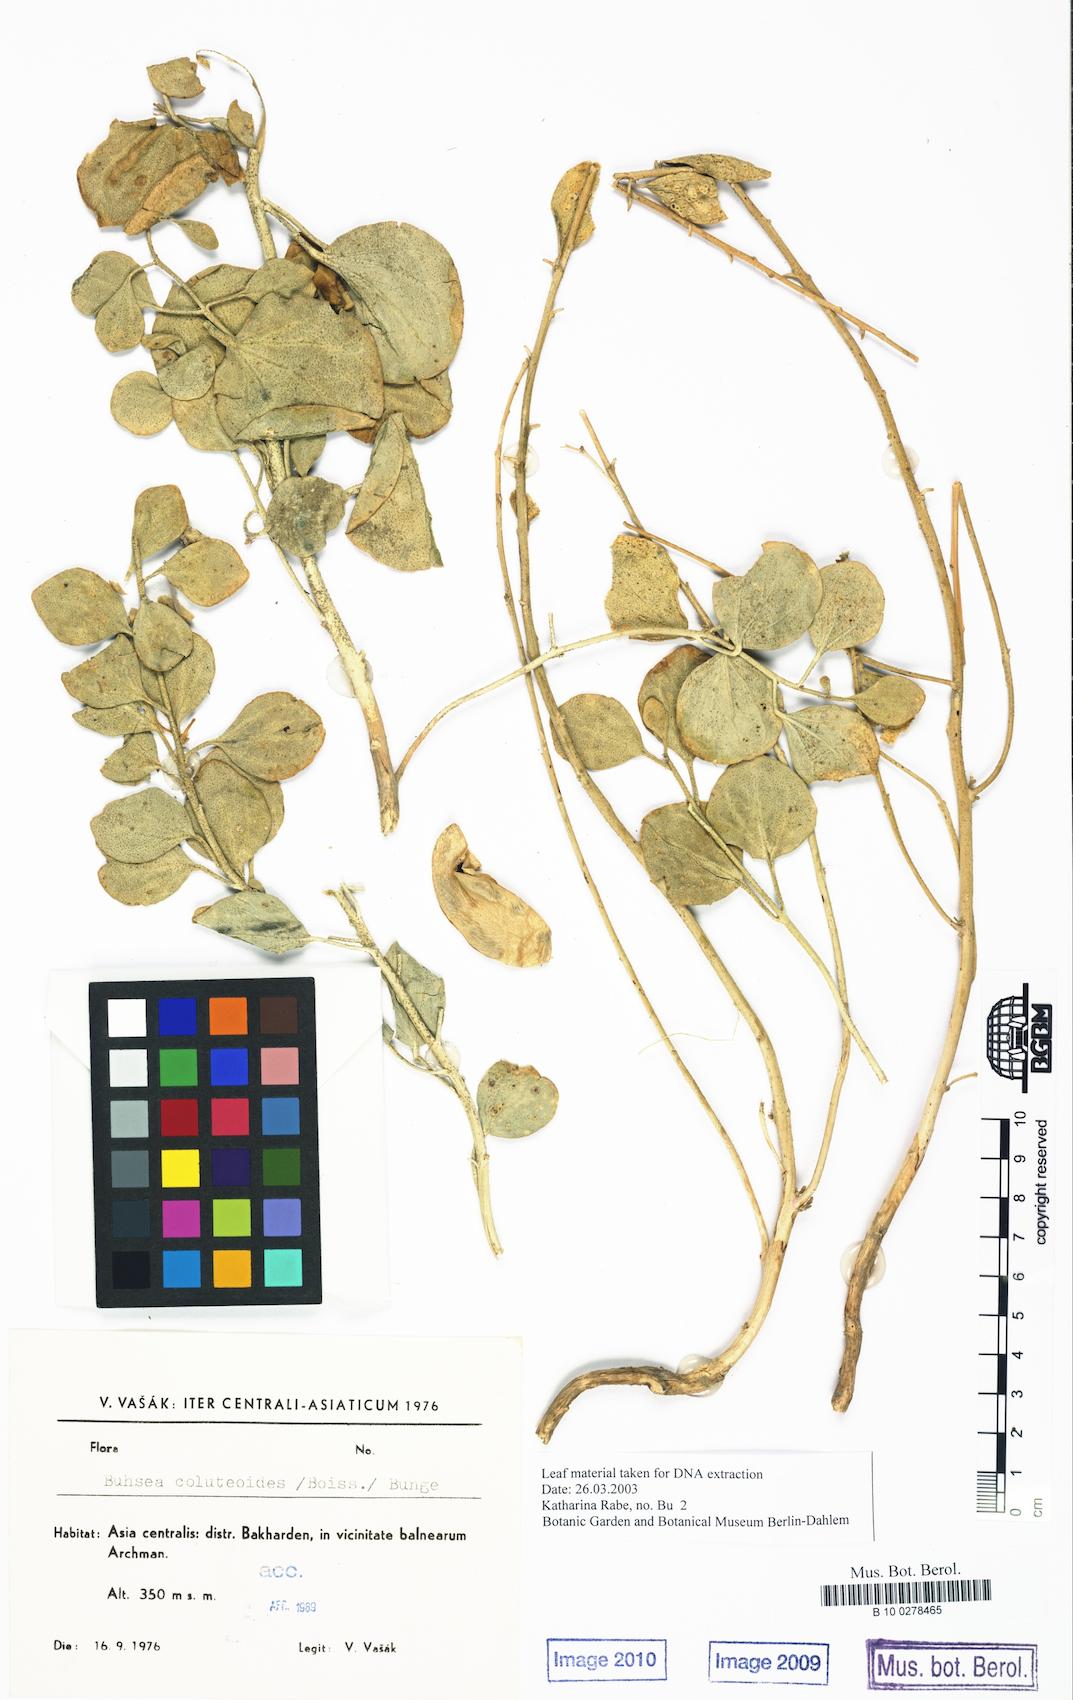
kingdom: Plantae
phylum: Tracheophyta
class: Magnoliopsida
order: Brassicales
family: Capparaceae
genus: Buhsia
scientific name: Buhsia coluteoides
